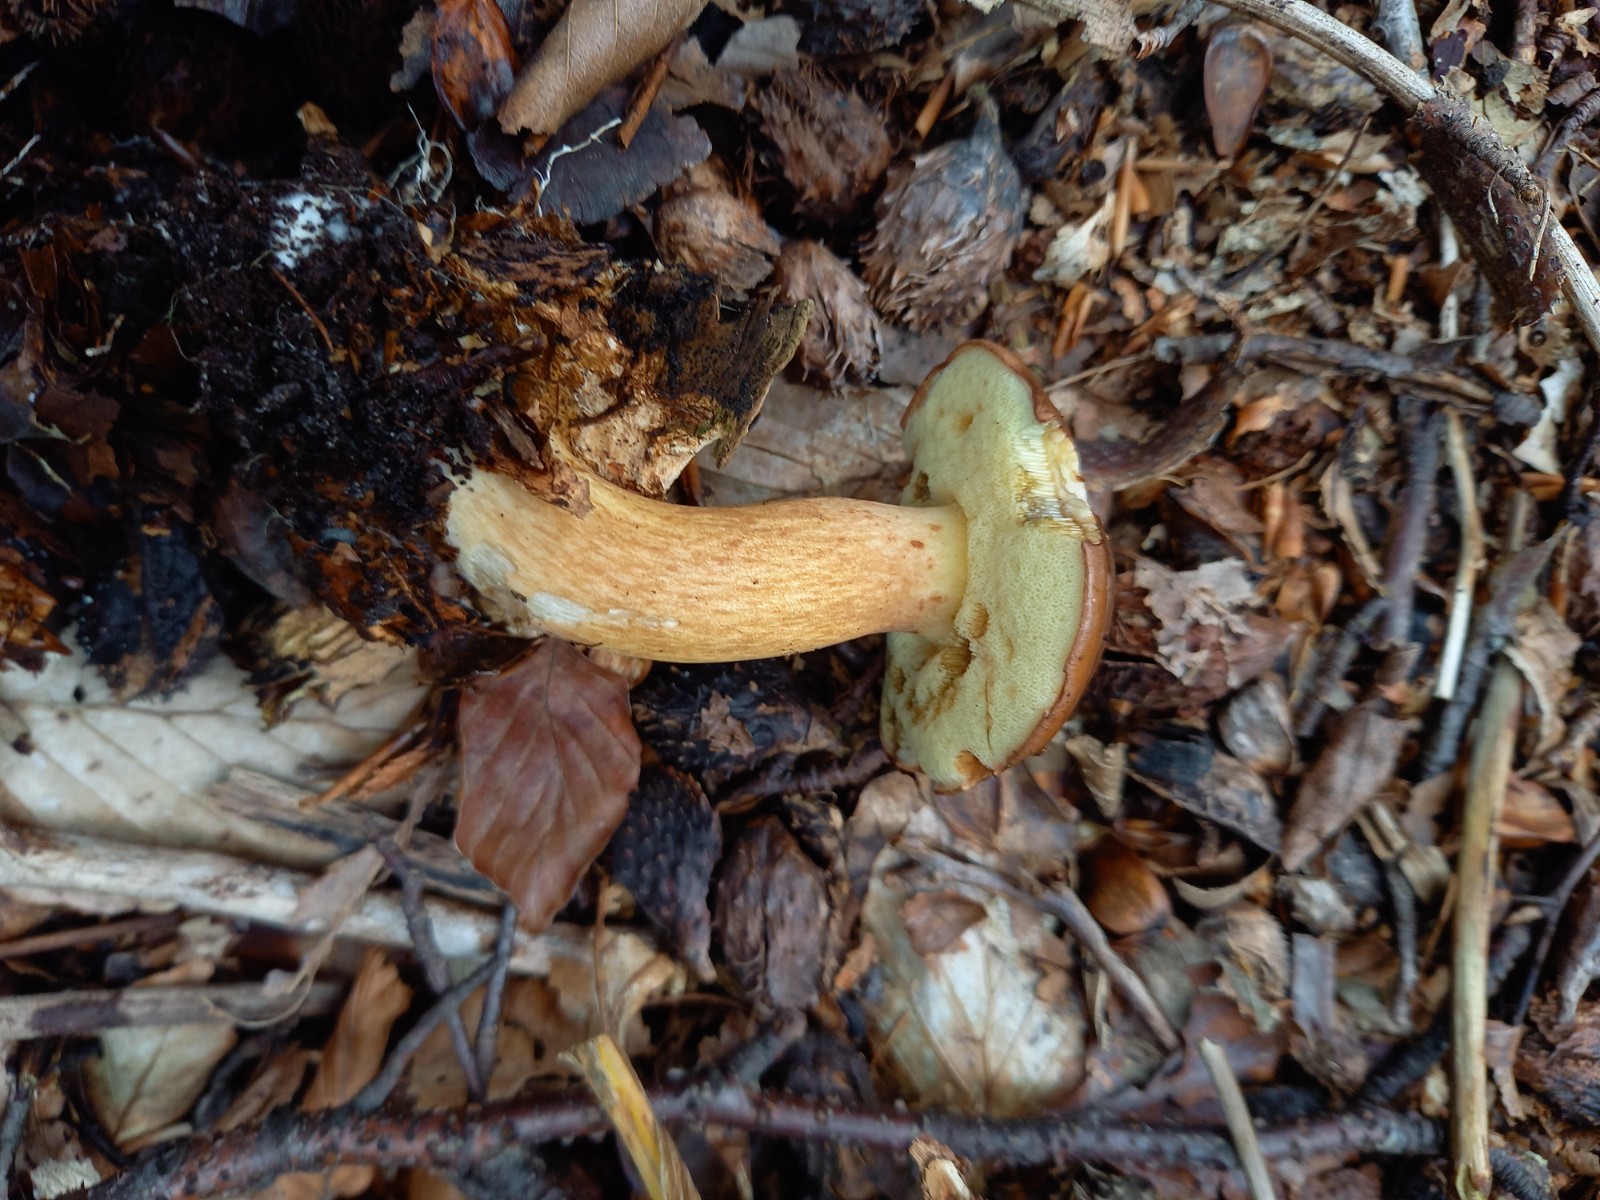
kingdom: Fungi
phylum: Basidiomycota
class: Agaricomycetes
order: Boletales
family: Boletaceae
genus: Imleria
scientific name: Imleria badia
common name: brunstokket rørhat
